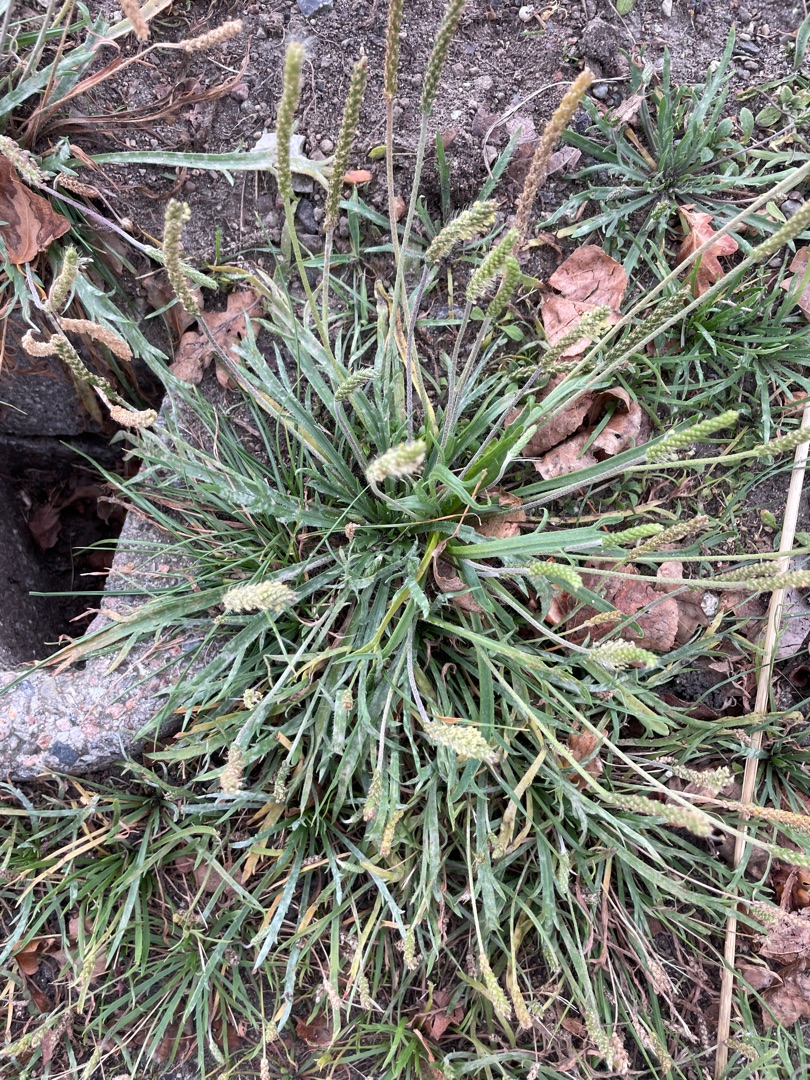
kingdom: Plantae
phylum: Tracheophyta
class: Magnoliopsida
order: Lamiales
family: Plantaginaceae
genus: Plantago
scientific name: Plantago coronopus
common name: Fliget vejbred
